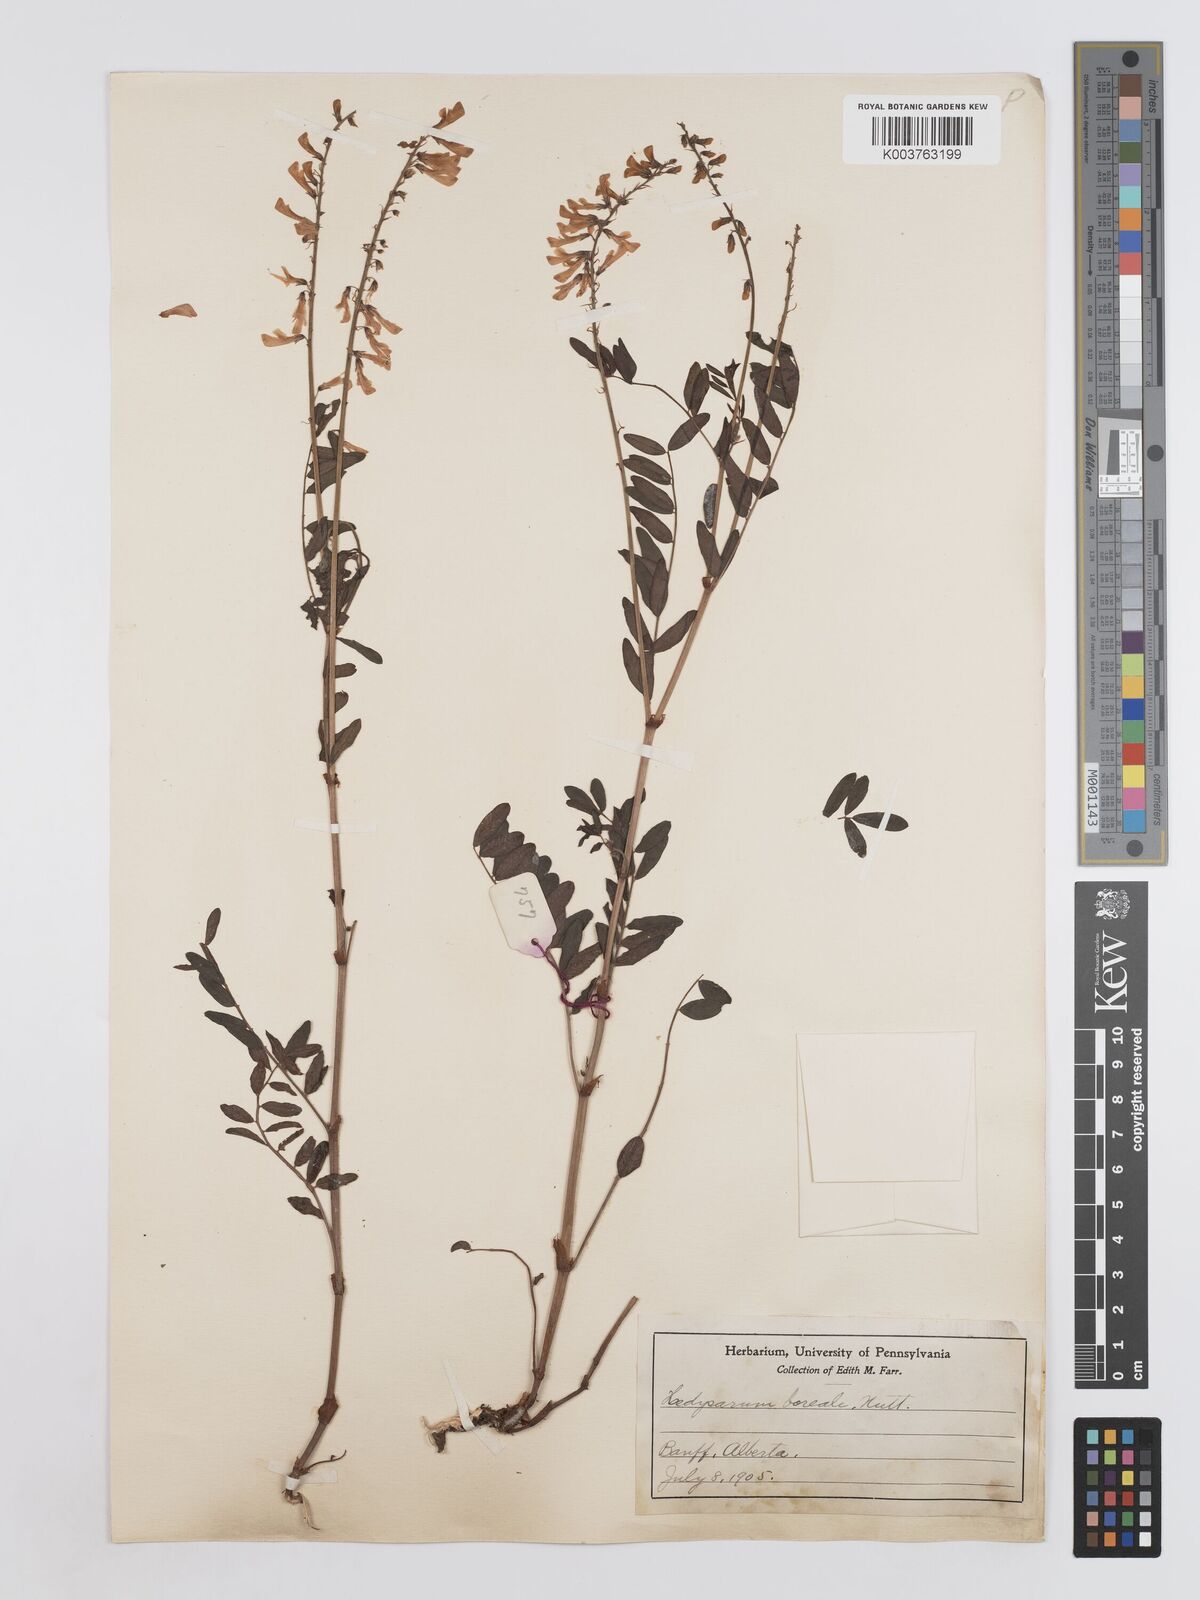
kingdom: Plantae
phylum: Tracheophyta
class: Magnoliopsida
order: Fabales
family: Fabaceae
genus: Hedysarum
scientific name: Hedysarum boreale
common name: Northern sweet-vetch
